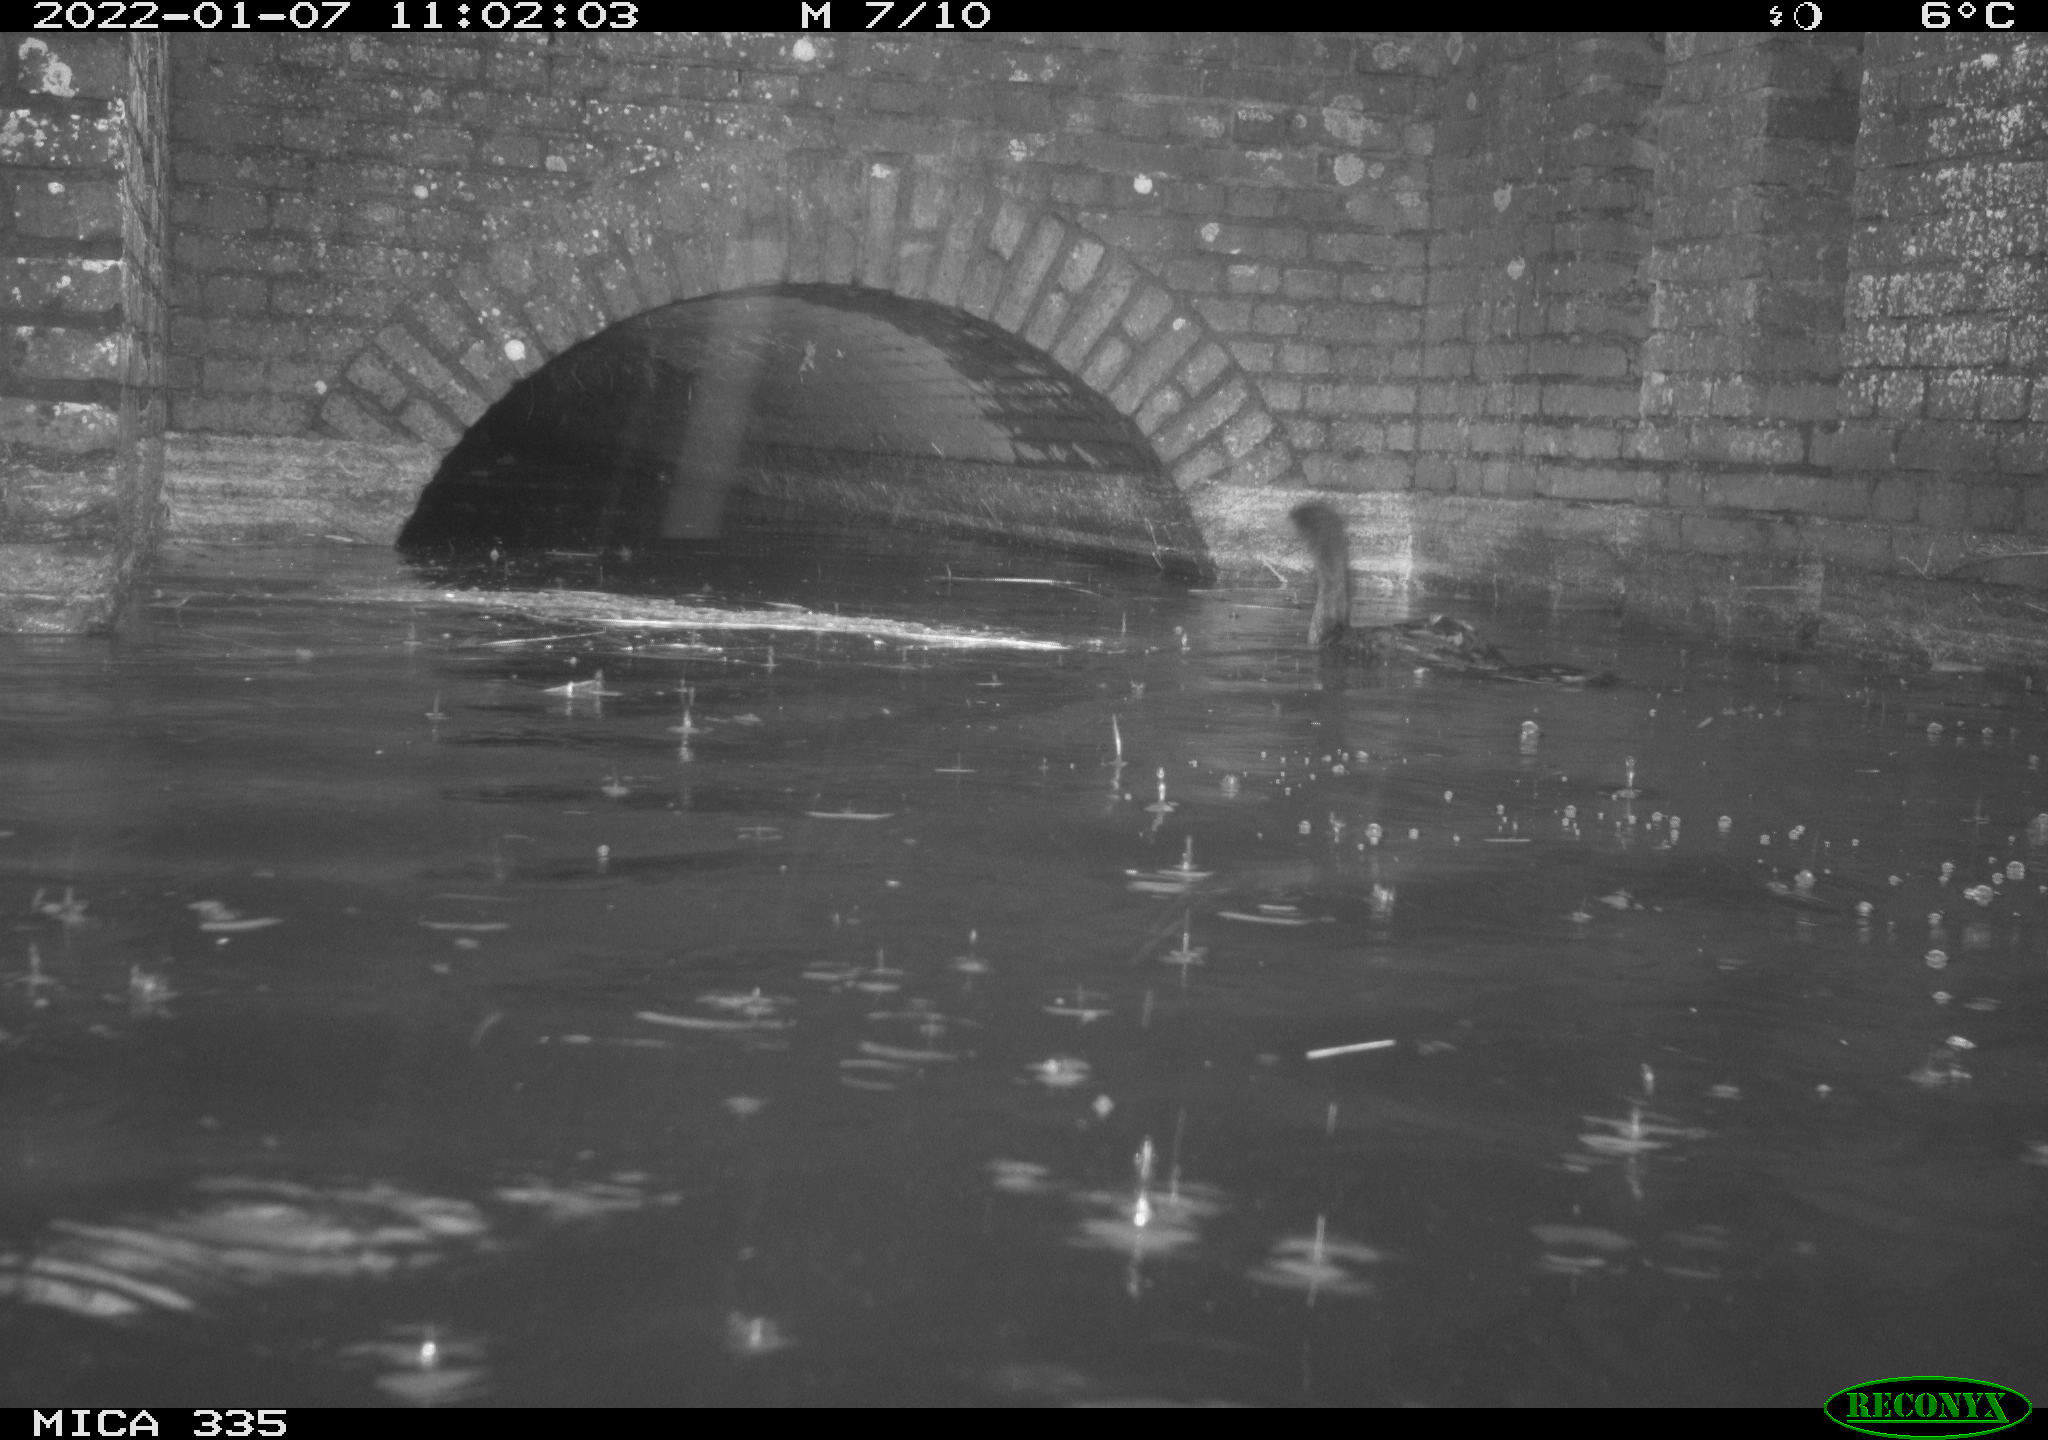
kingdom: Animalia
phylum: Chordata
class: Aves
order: Suliformes
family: Phalacrocoracidae
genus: Phalacrocorax
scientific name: Phalacrocorax carbo
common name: Great cormorant
